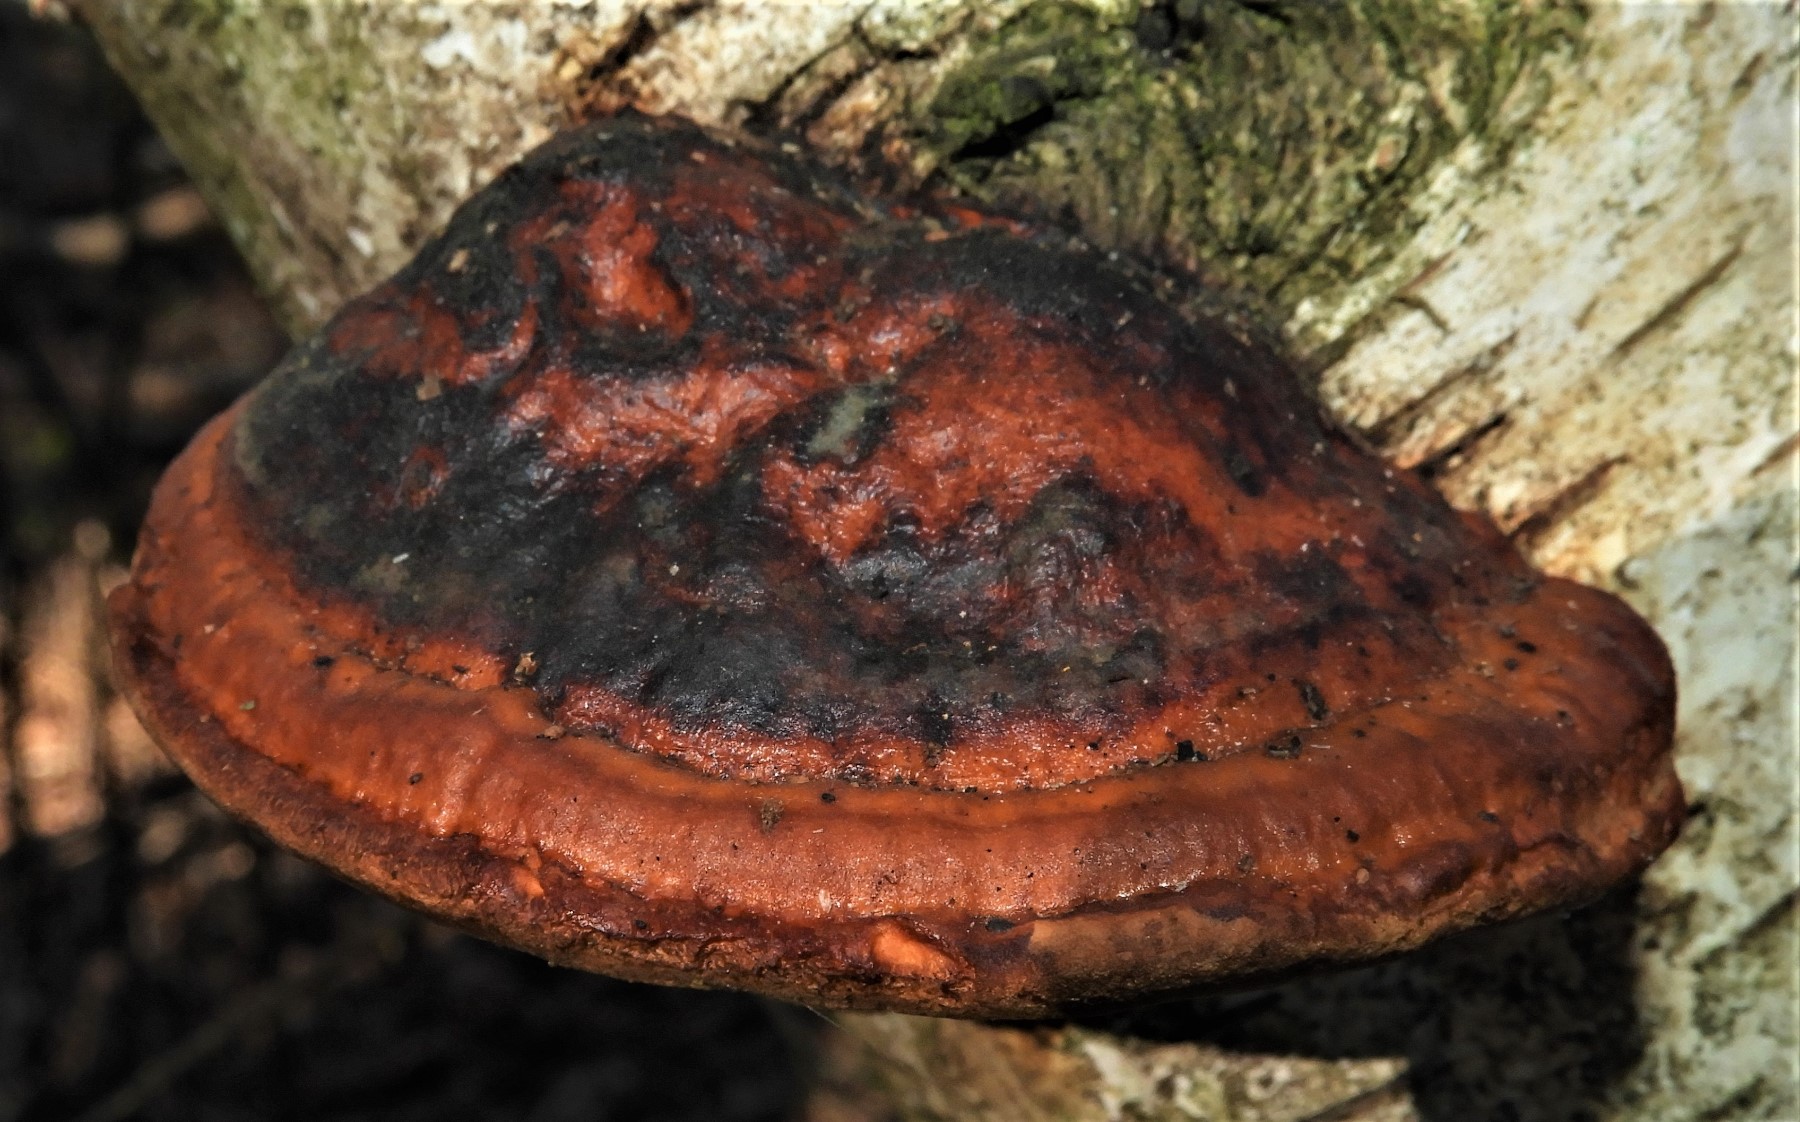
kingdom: Fungi
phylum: Basidiomycota
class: Agaricomycetes
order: Polyporales
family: Fomitopsidaceae
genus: Fomitopsis
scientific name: Fomitopsis pinicola
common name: randbæltet hovporesvamp
